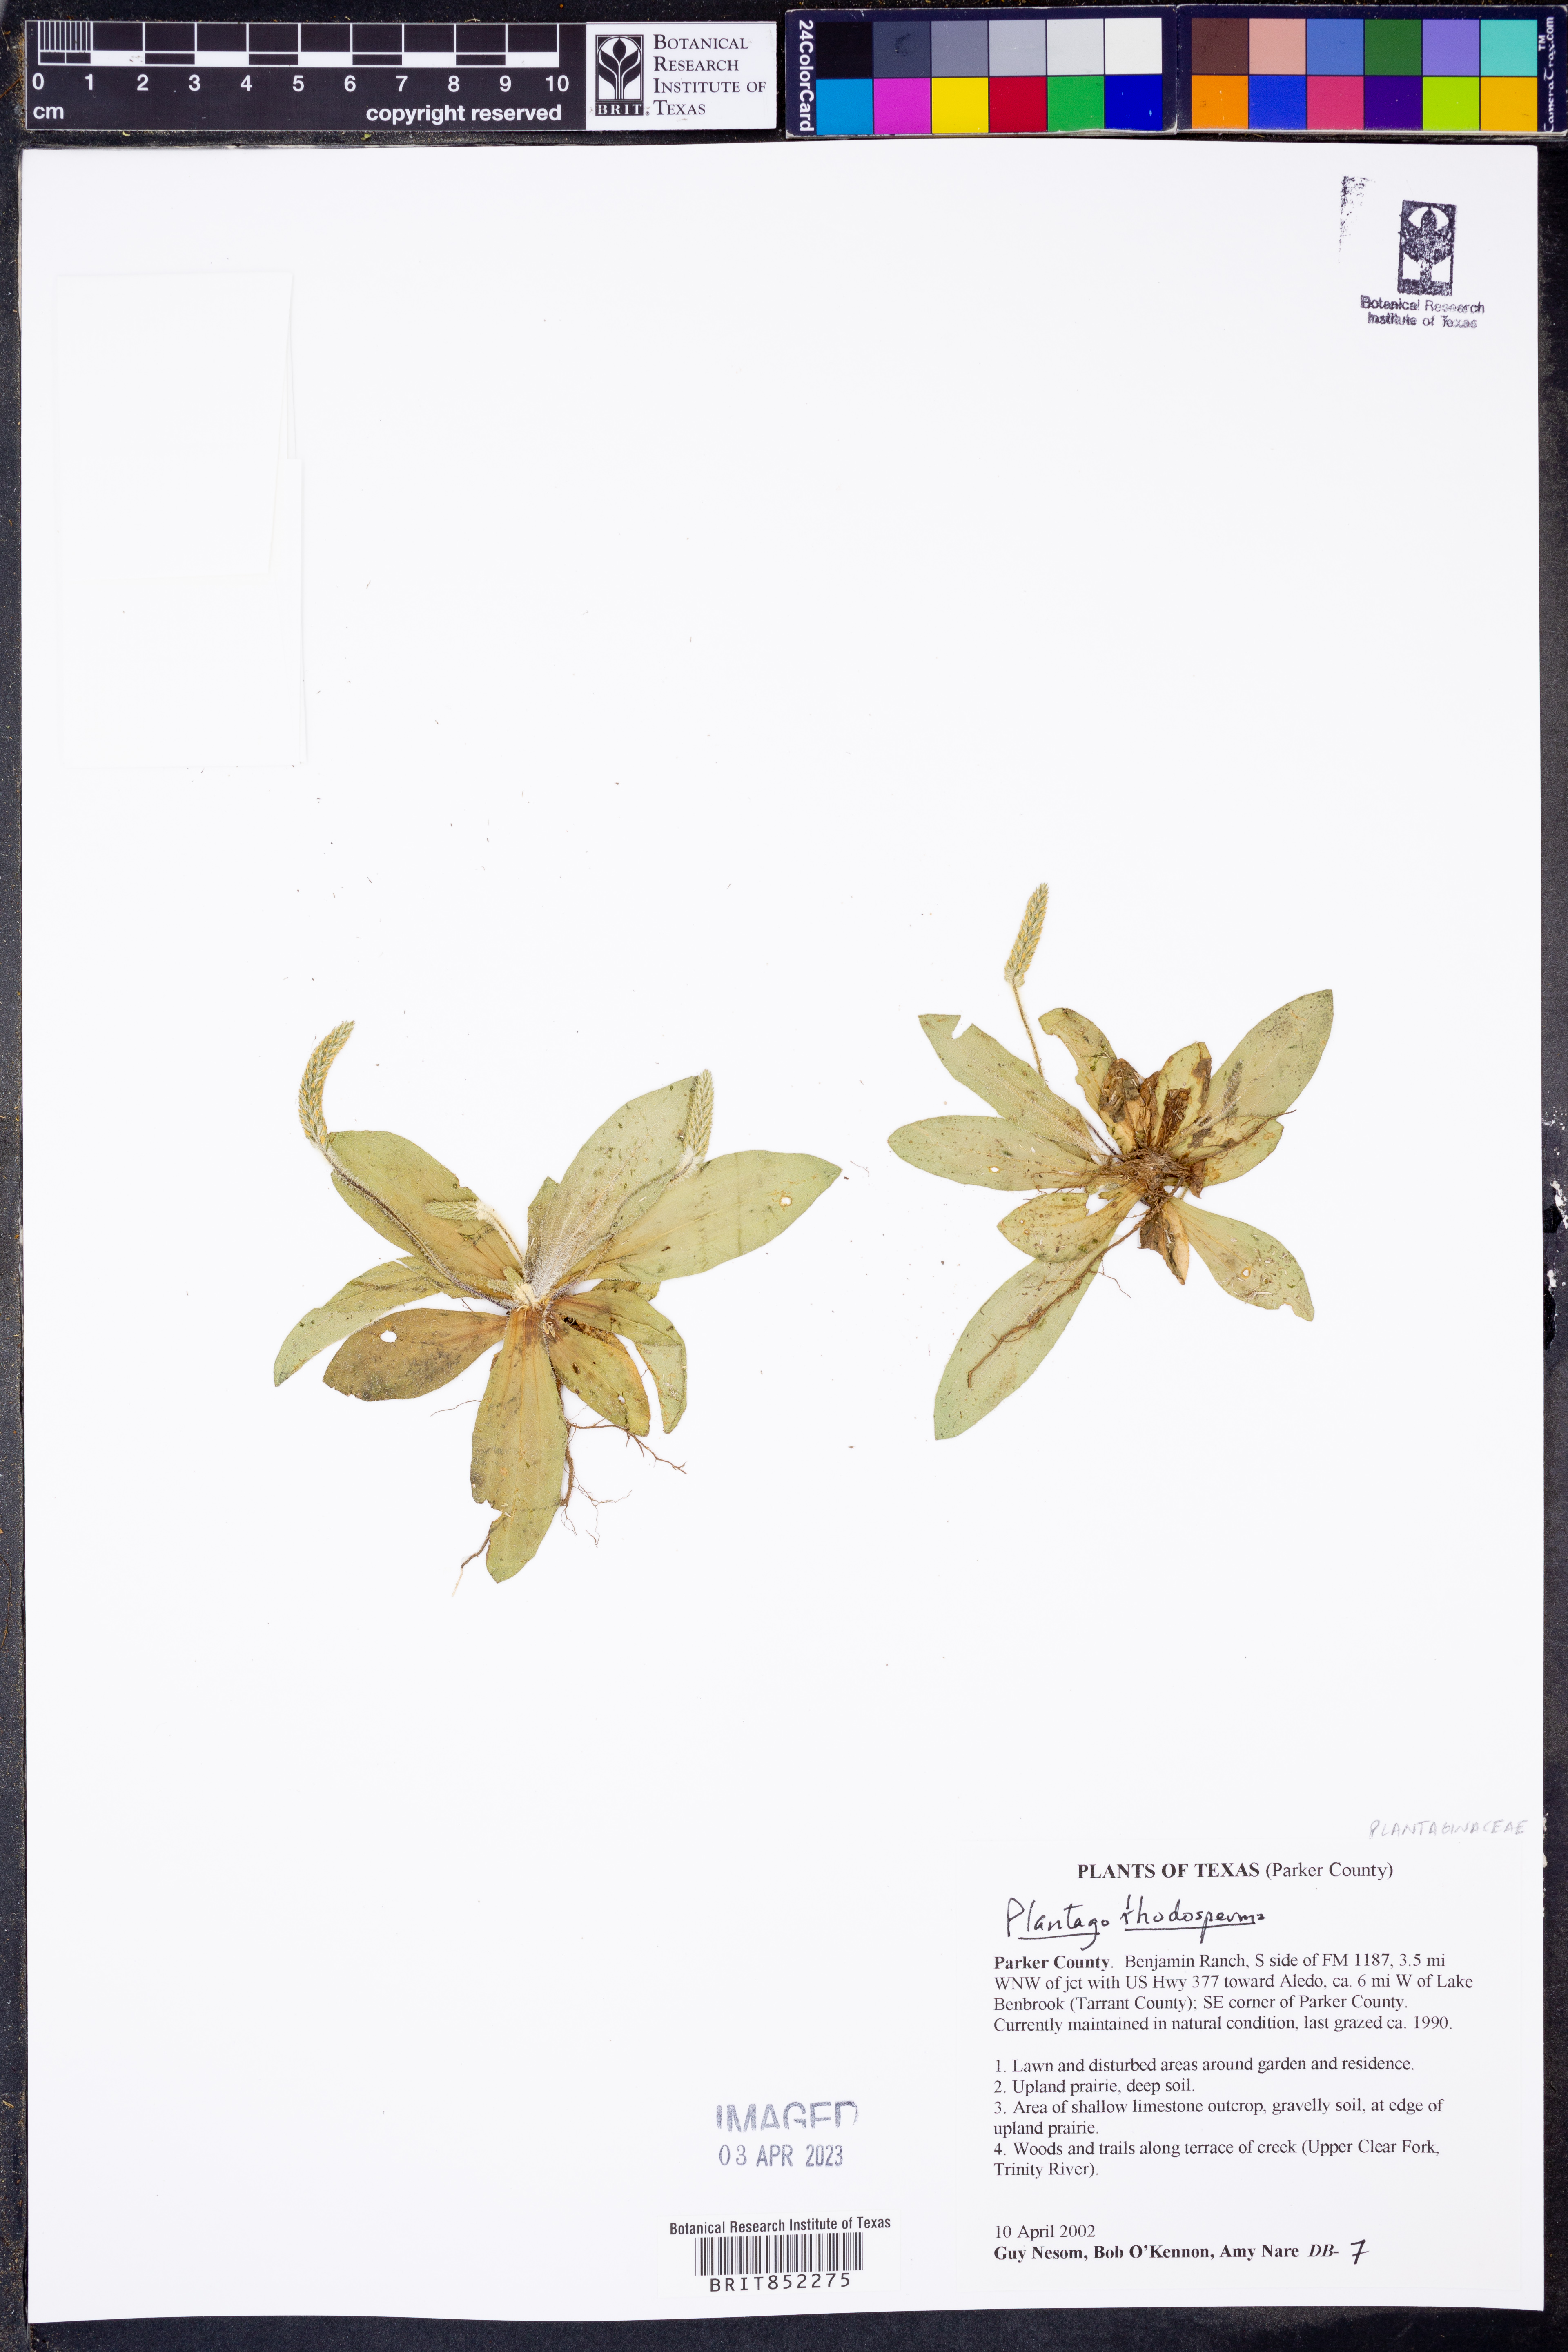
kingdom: Plantae
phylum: Tracheophyta
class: Magnoliopsida
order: Lamiales
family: Plantaginaceae
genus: Plantago
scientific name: Plantago rhodosperma
